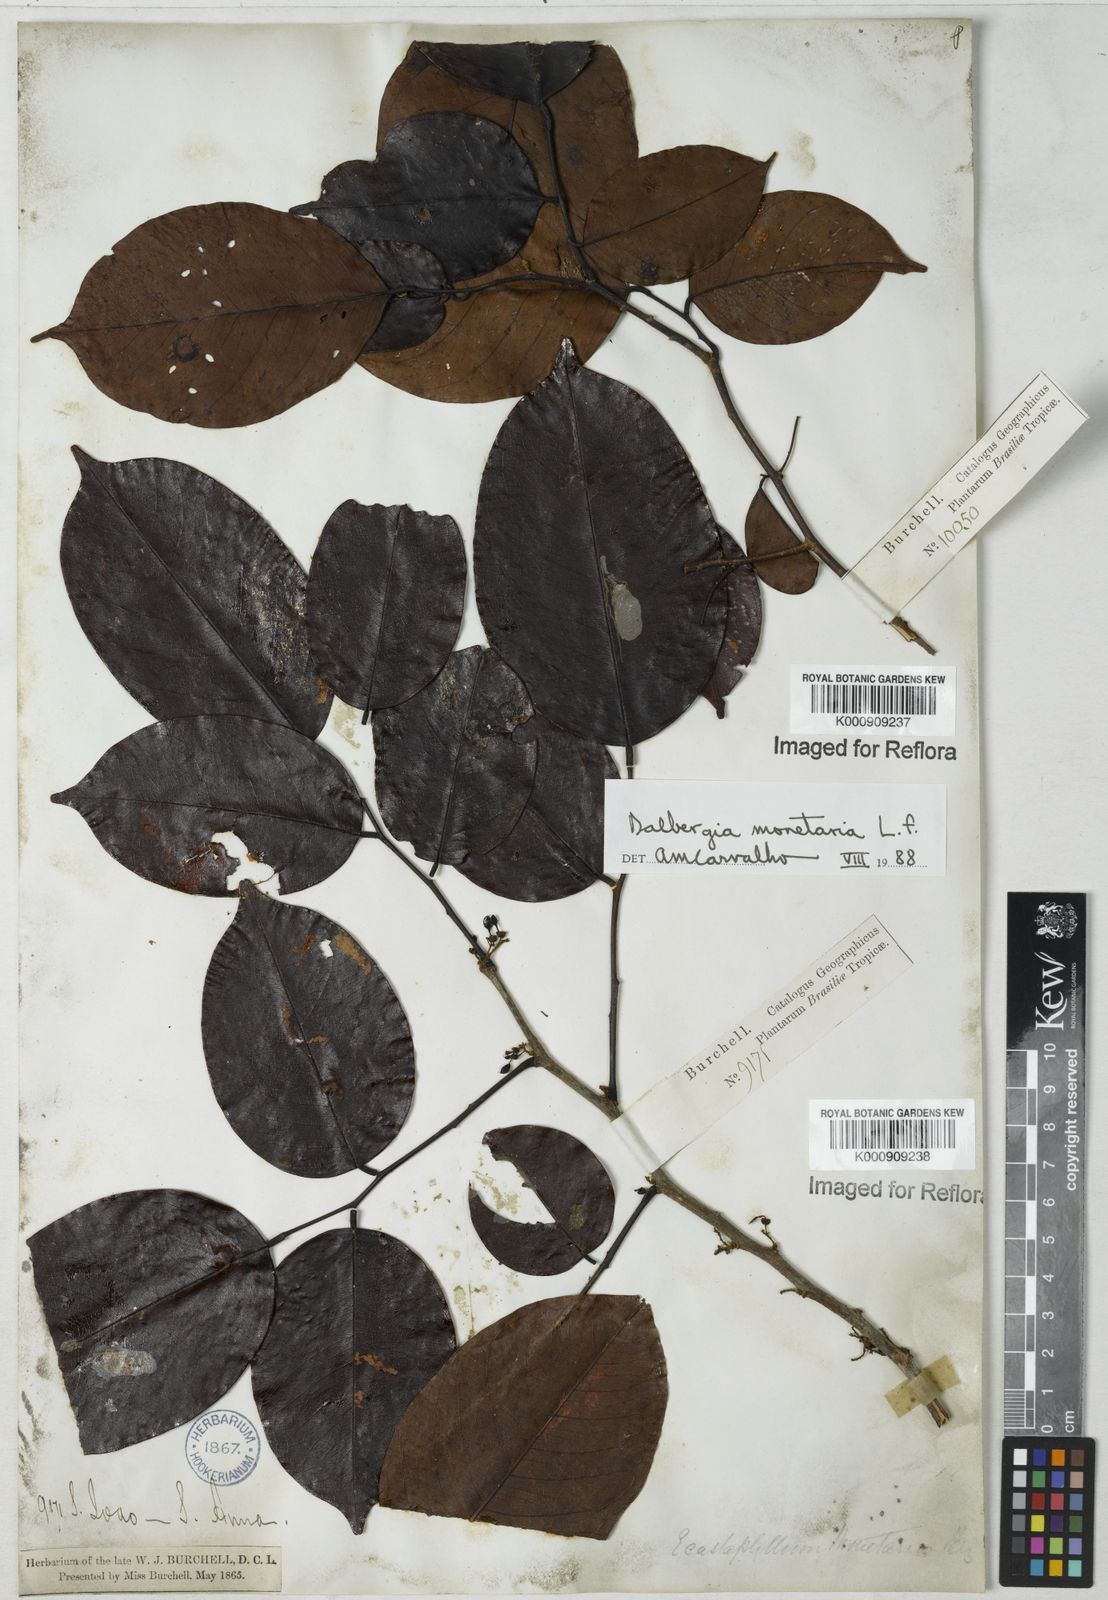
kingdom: Plantae
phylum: Tracheophyta
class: Magnoliopsida
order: Fabales
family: Fabaceae
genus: Dalbergia
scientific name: Dalbergia ovalis
